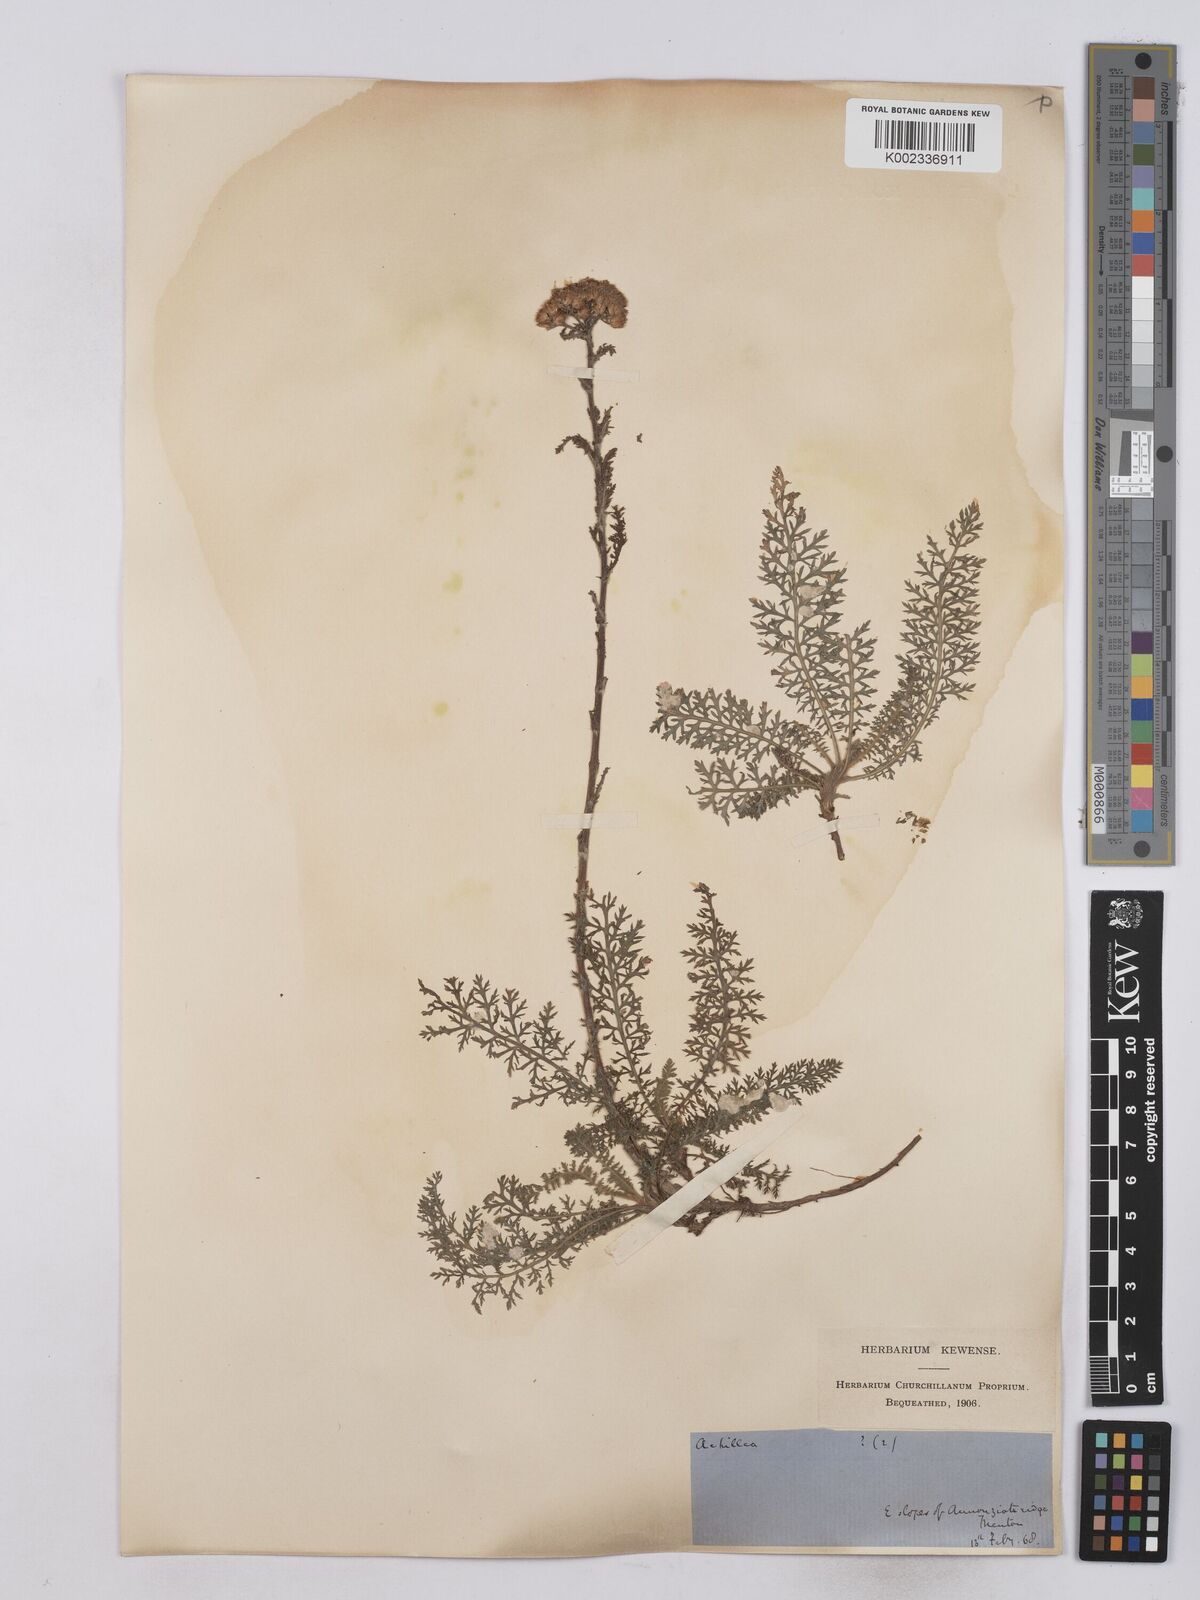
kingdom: Plantae
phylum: Tracheophyta
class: Magnoliopsida
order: Asterales
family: Asteraceae
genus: Achillea
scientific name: Achillea odorata
